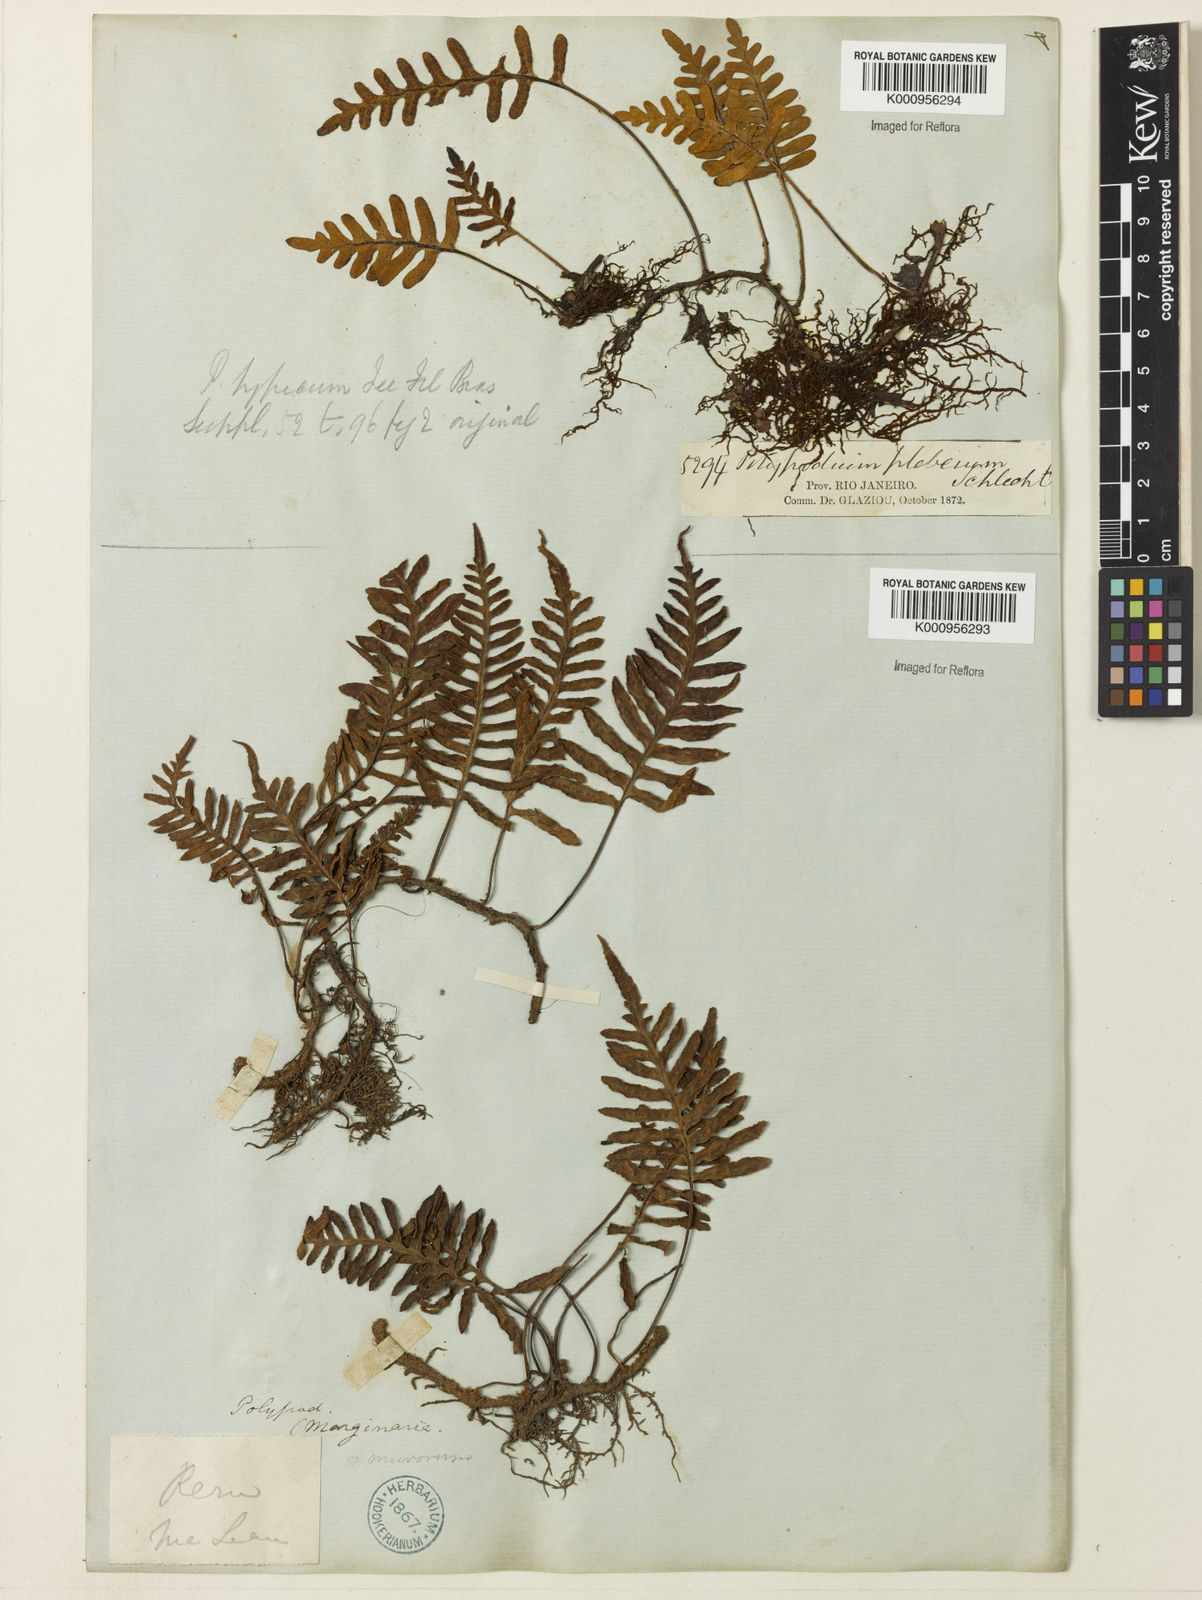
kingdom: Plantae
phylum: Tracheophyta
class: Polypodiopsida
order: Polypodiales
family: Polypodiaceae
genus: Polypodium
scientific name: Polypodium
